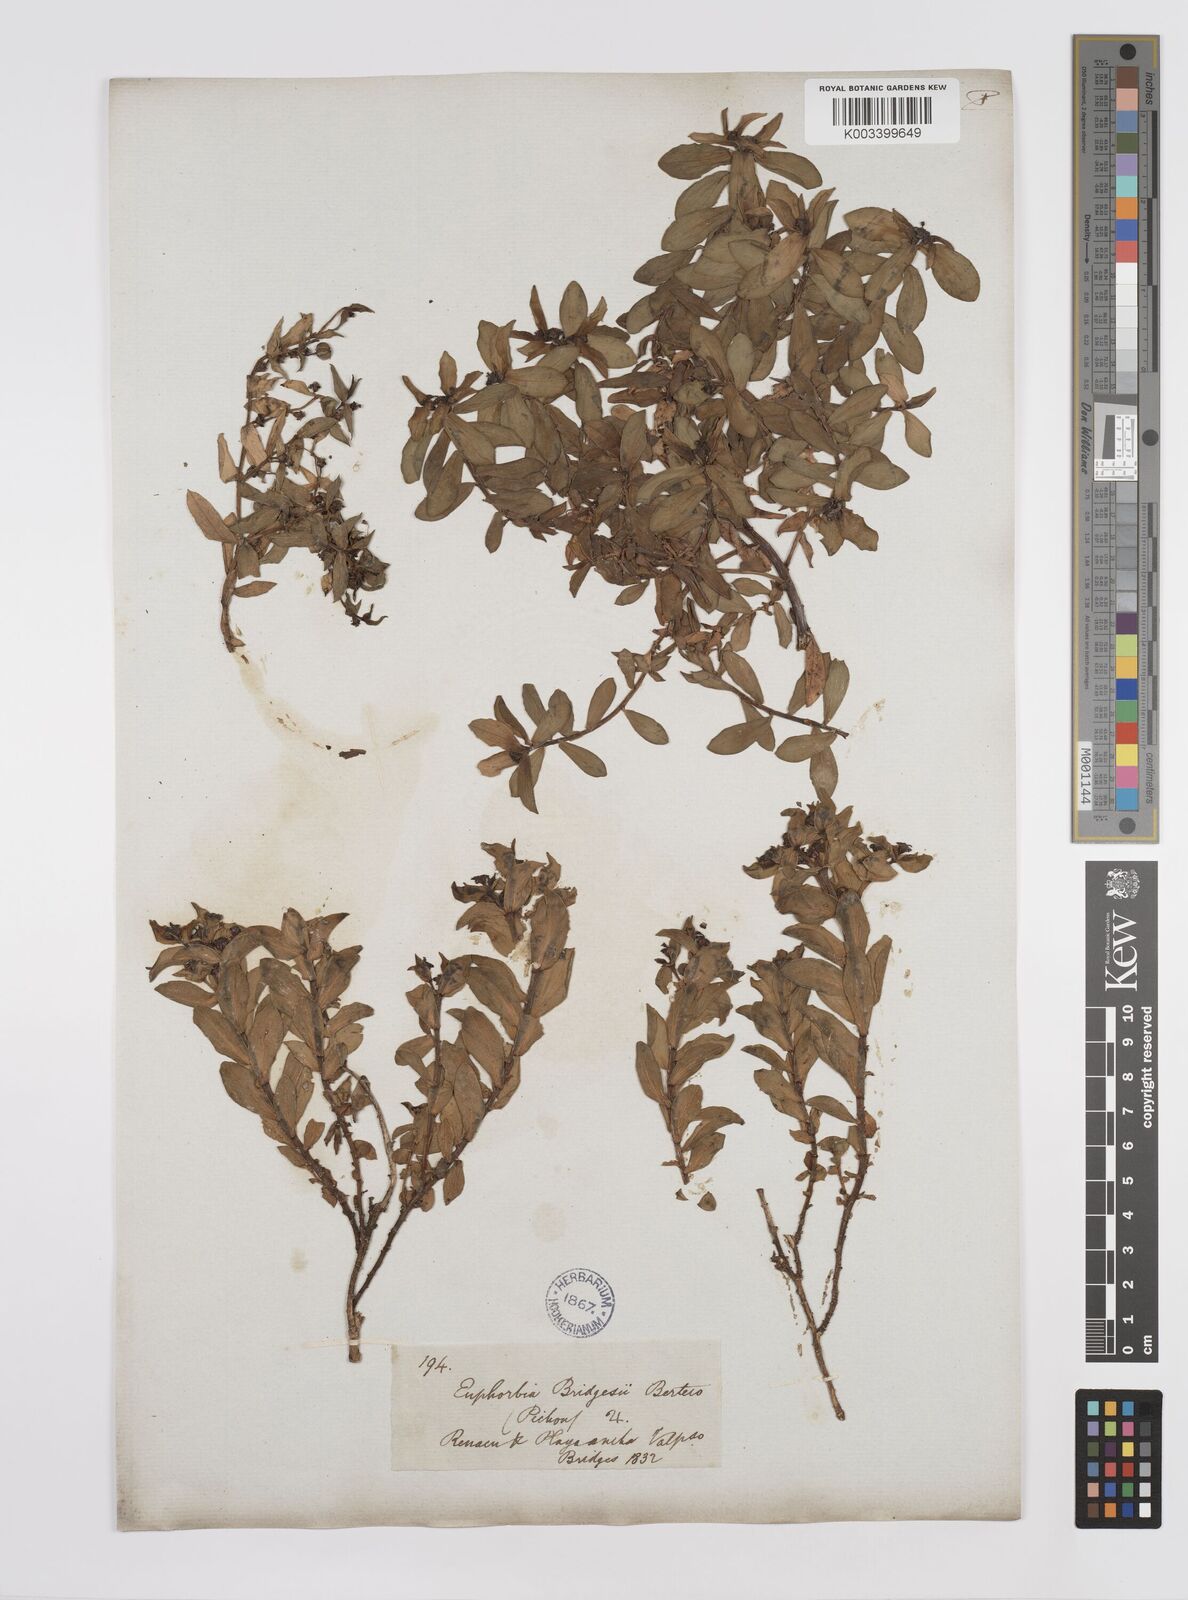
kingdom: Plantae
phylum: Tracheophyta
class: Magnoliopsida
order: Malpighiales
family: Euphorbiaceae
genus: Euphorbia
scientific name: Euphorbia portulacoides
